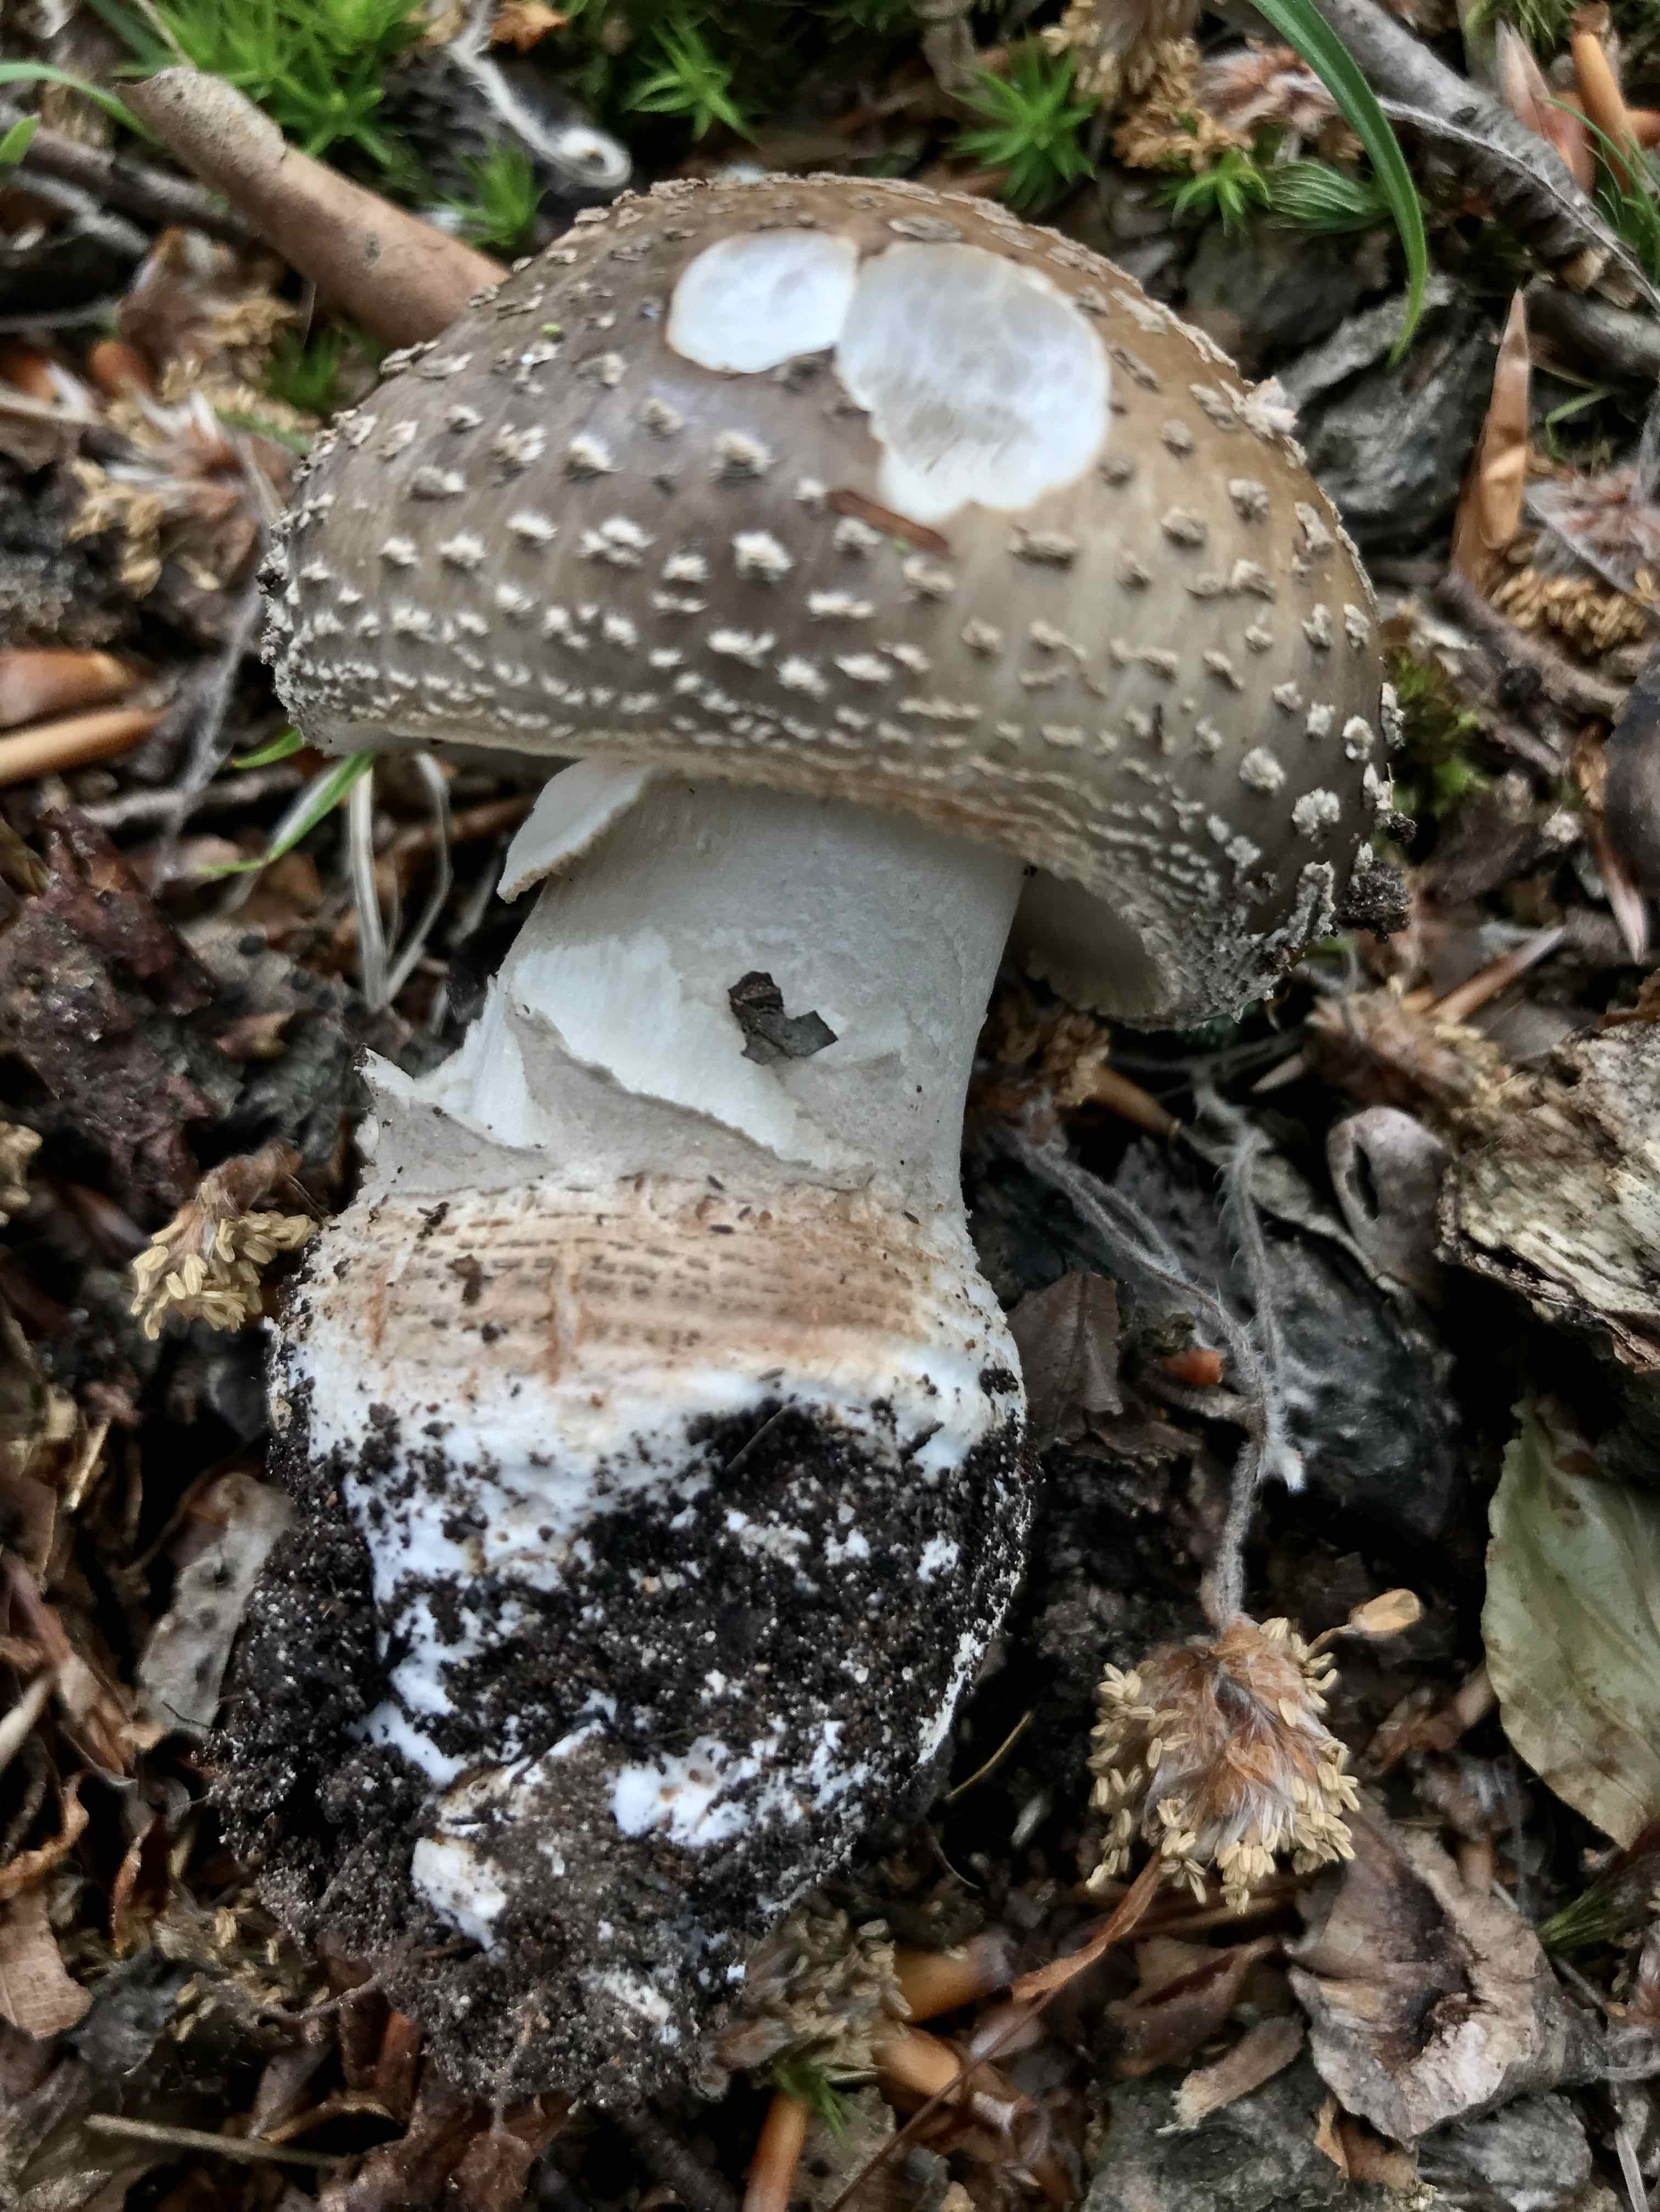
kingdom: Fungi
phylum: Basidiomycota
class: Agaricomycetes
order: Agaricales
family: Amanitaceae
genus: Amanita
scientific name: Amanita
